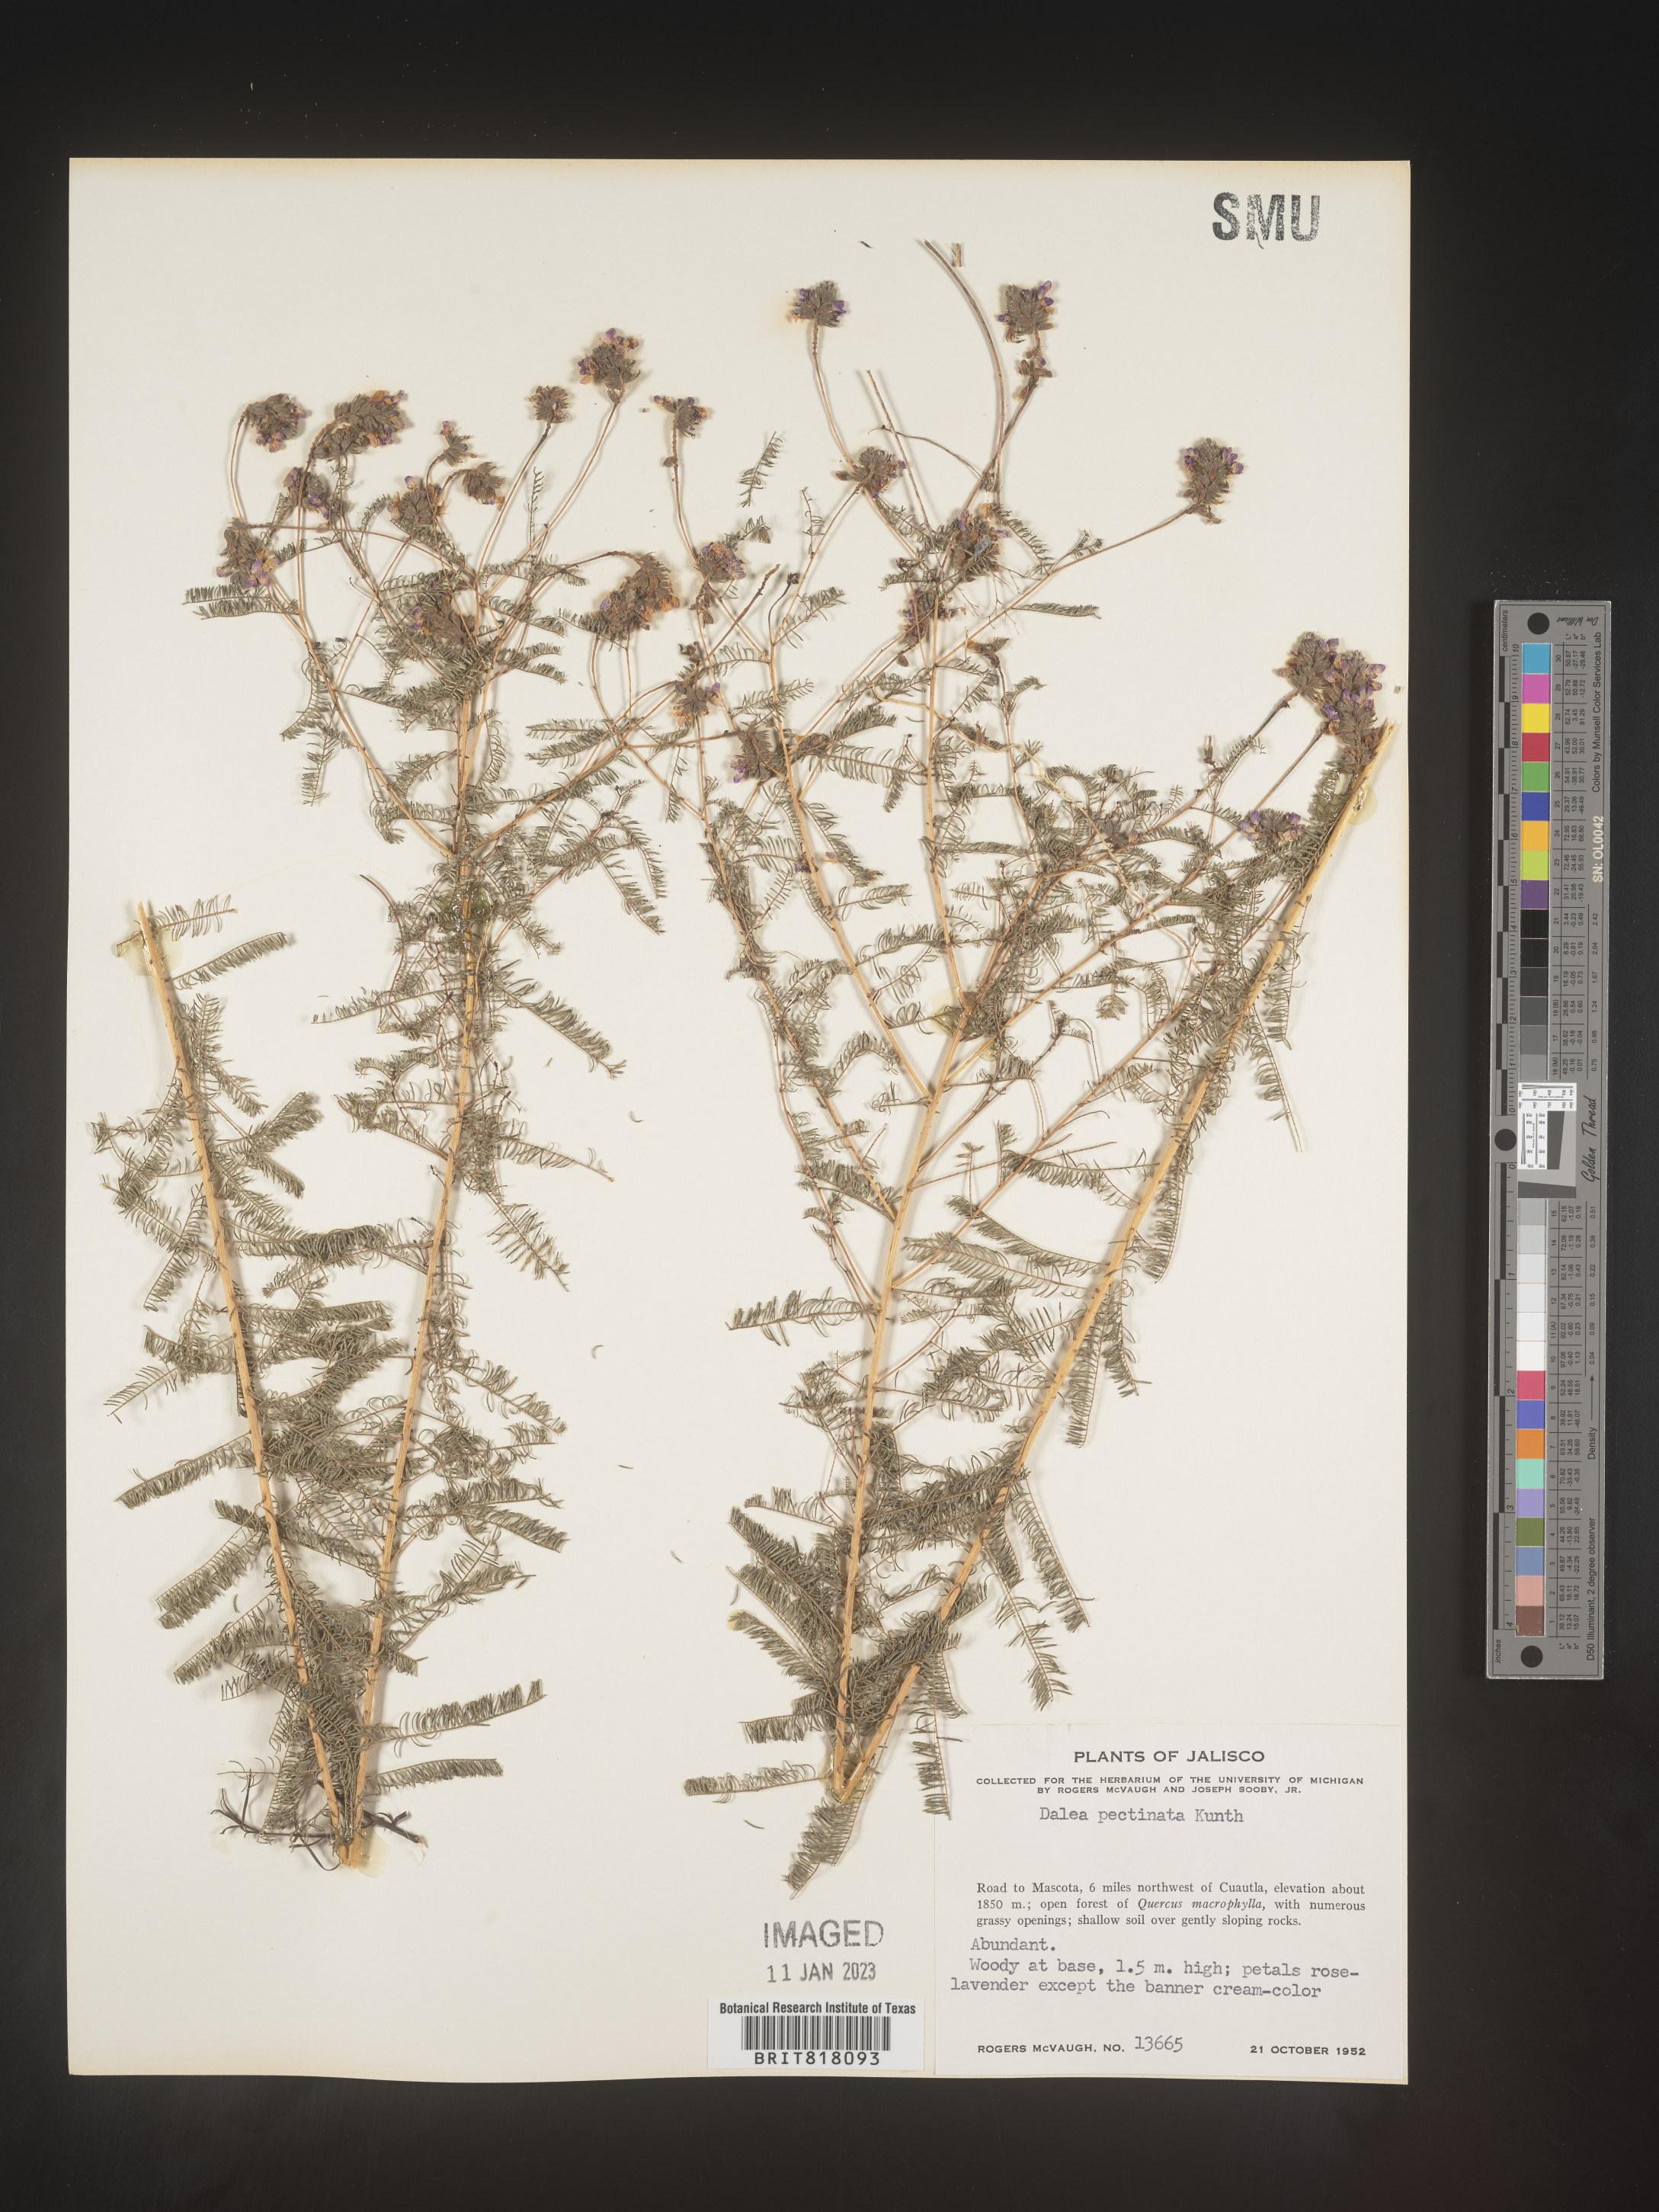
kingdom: Plantae
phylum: Tracheophyta
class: Magnoliopsida
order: Fabales
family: Fabaceae
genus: Dalea
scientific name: Dalea
